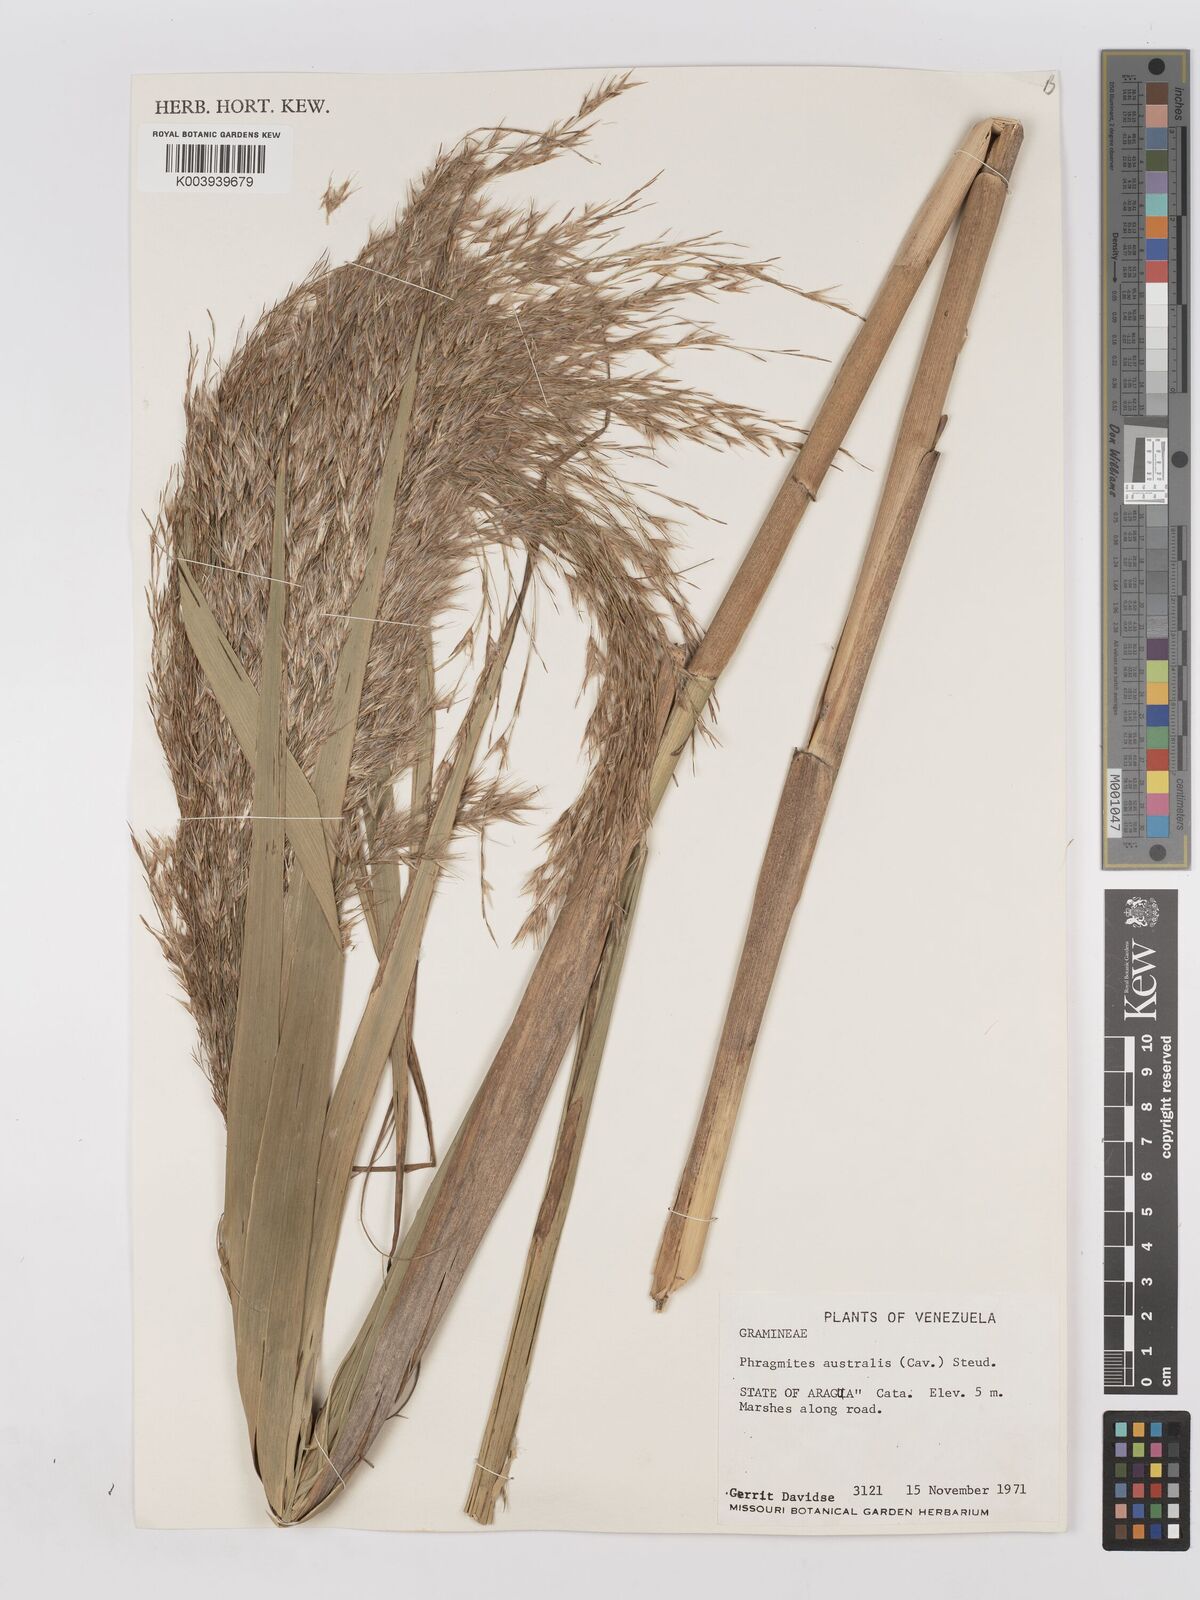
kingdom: Plantae
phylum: Tracheophyta
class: Liliopsida
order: Poales
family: Poaceae
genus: Phragmites
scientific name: Phragmites australis
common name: Common reed
